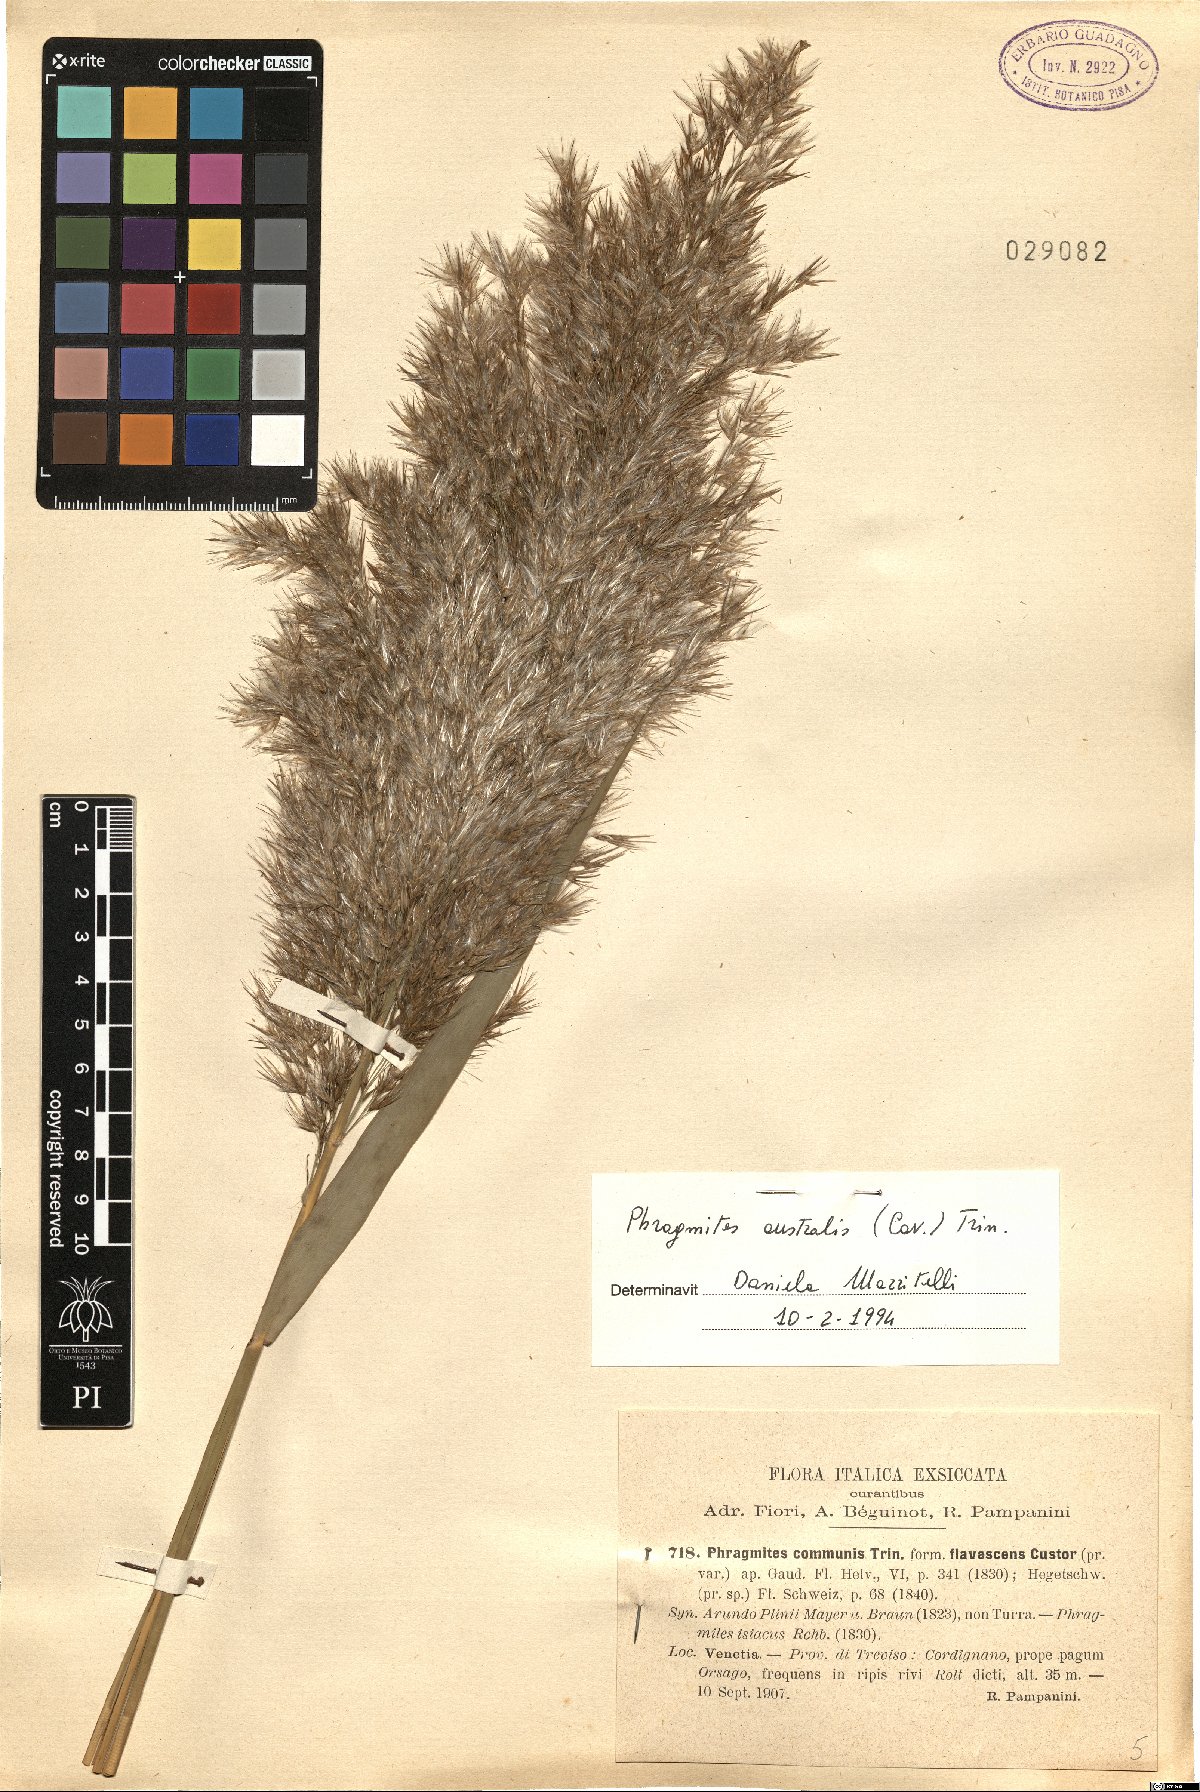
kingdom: Plantae
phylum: Tracheophyta
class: Liliopsida
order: Poales
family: Poaceae
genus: Phragmites
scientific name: Phragmites australis
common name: Common reed
